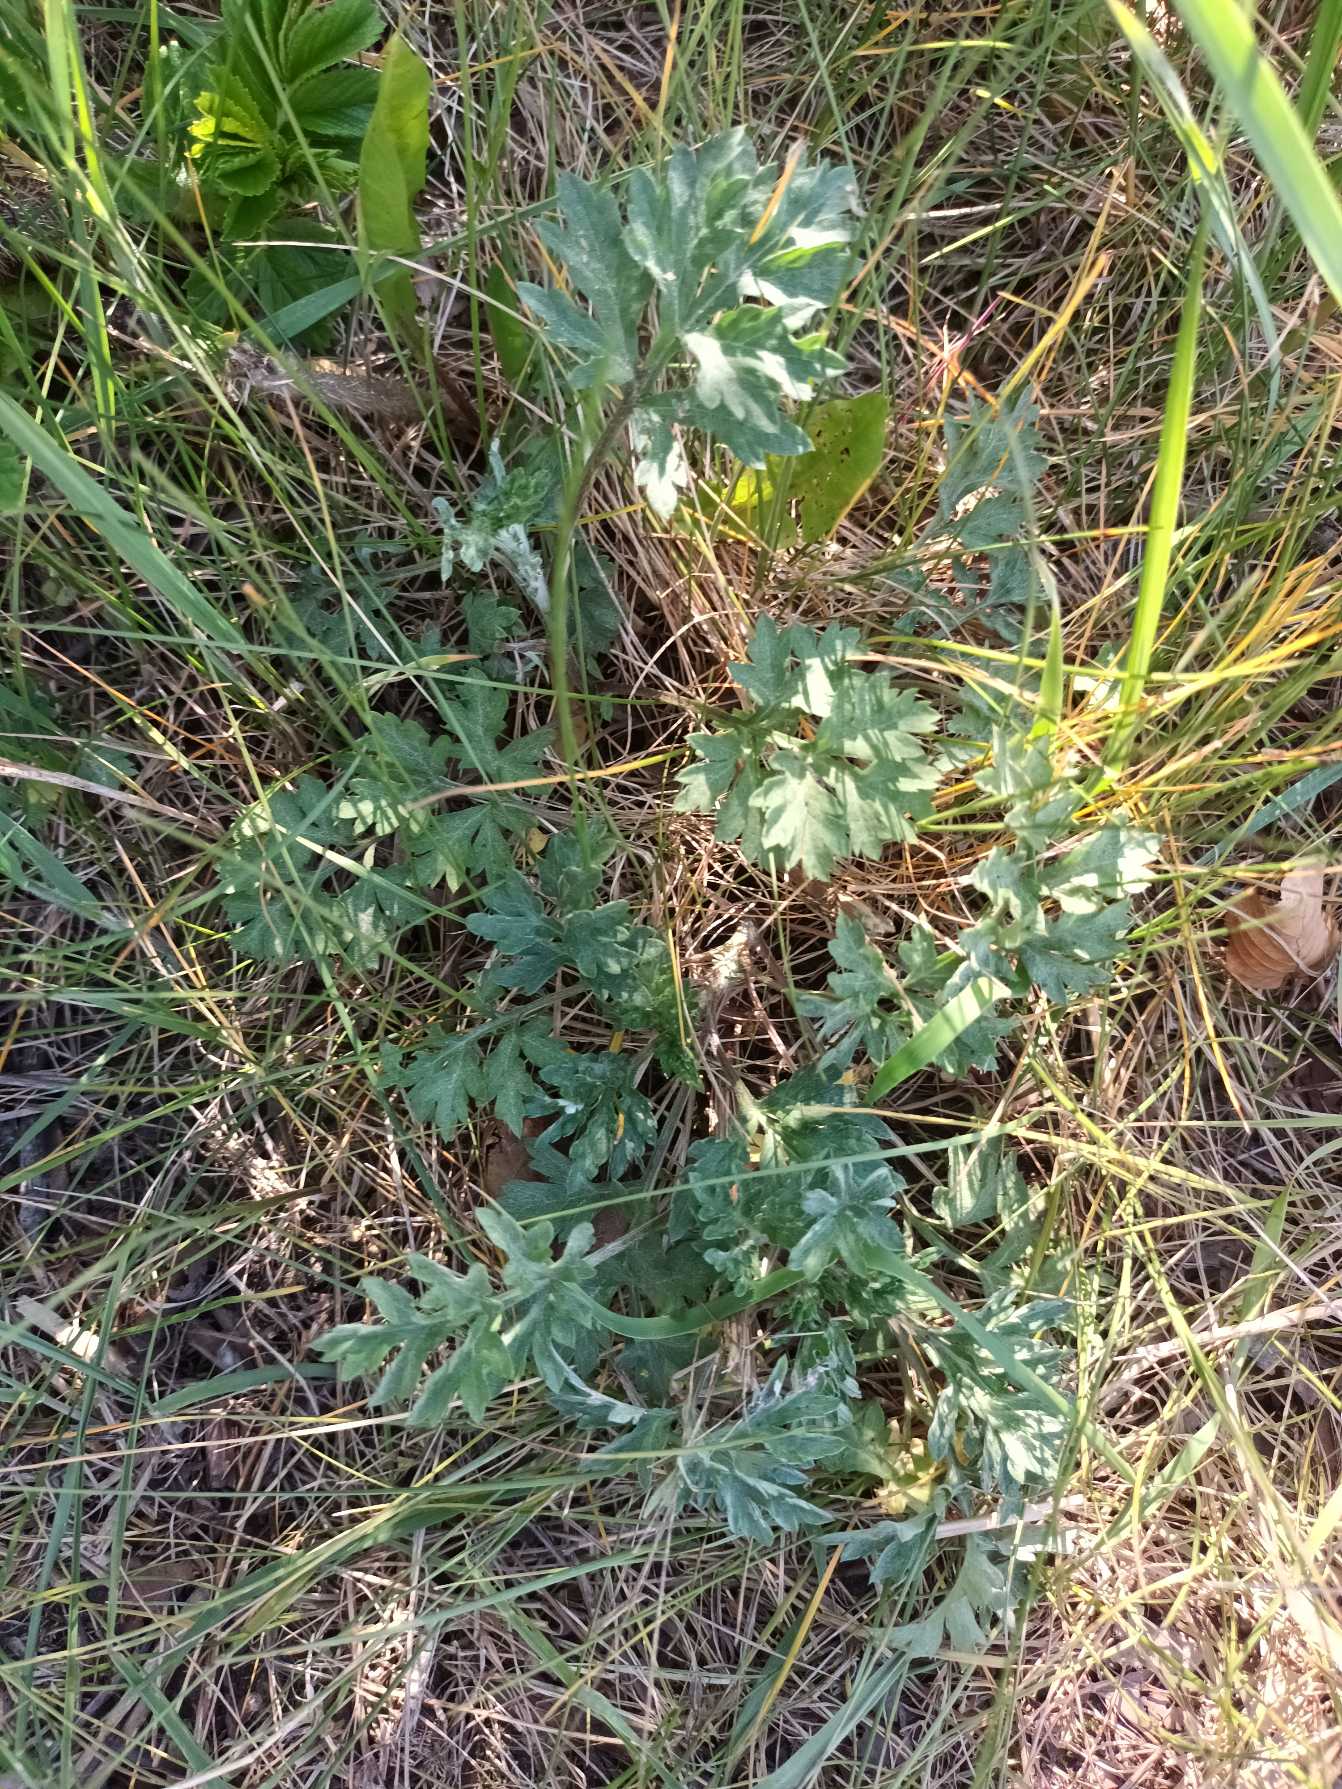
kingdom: Plantae
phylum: Tracheophyta
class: Magnoliopsida
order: Asterales
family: Asteraceae
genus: Artemisia
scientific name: Artemisia vulgaris
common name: Grå-bynke
